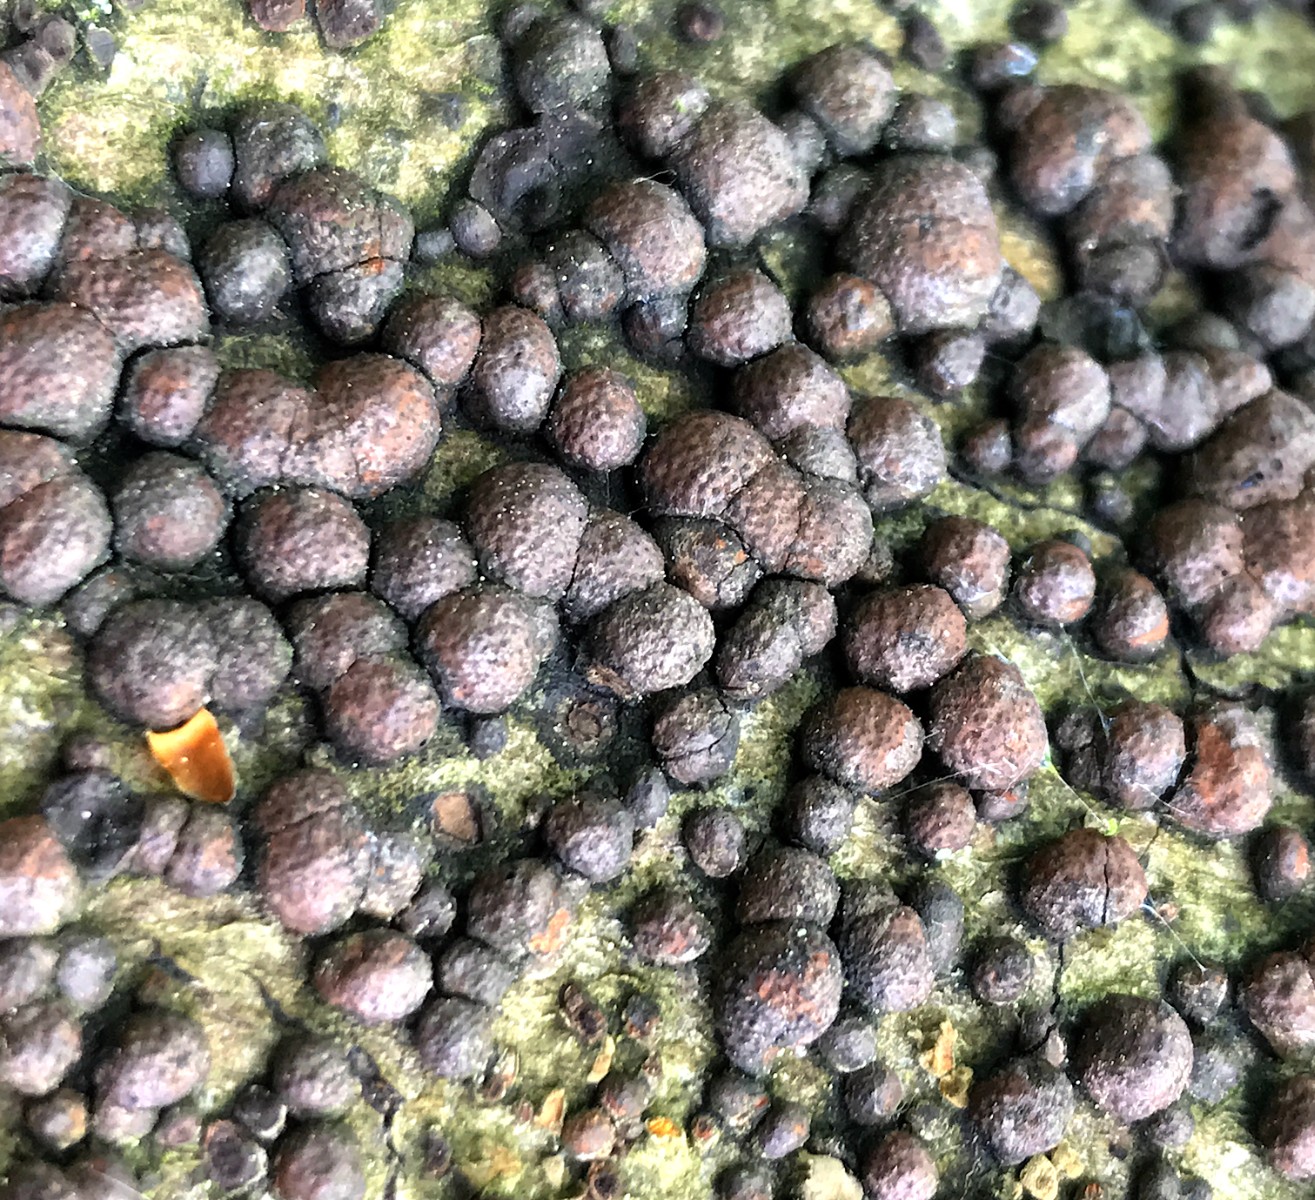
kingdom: Fungi
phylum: Ascomycota
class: Sordariomycetes
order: Xylariales
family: Hypoxylaceae
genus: Hypoxylon
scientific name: Hypoxylon fragiforme
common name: kuljordbær
